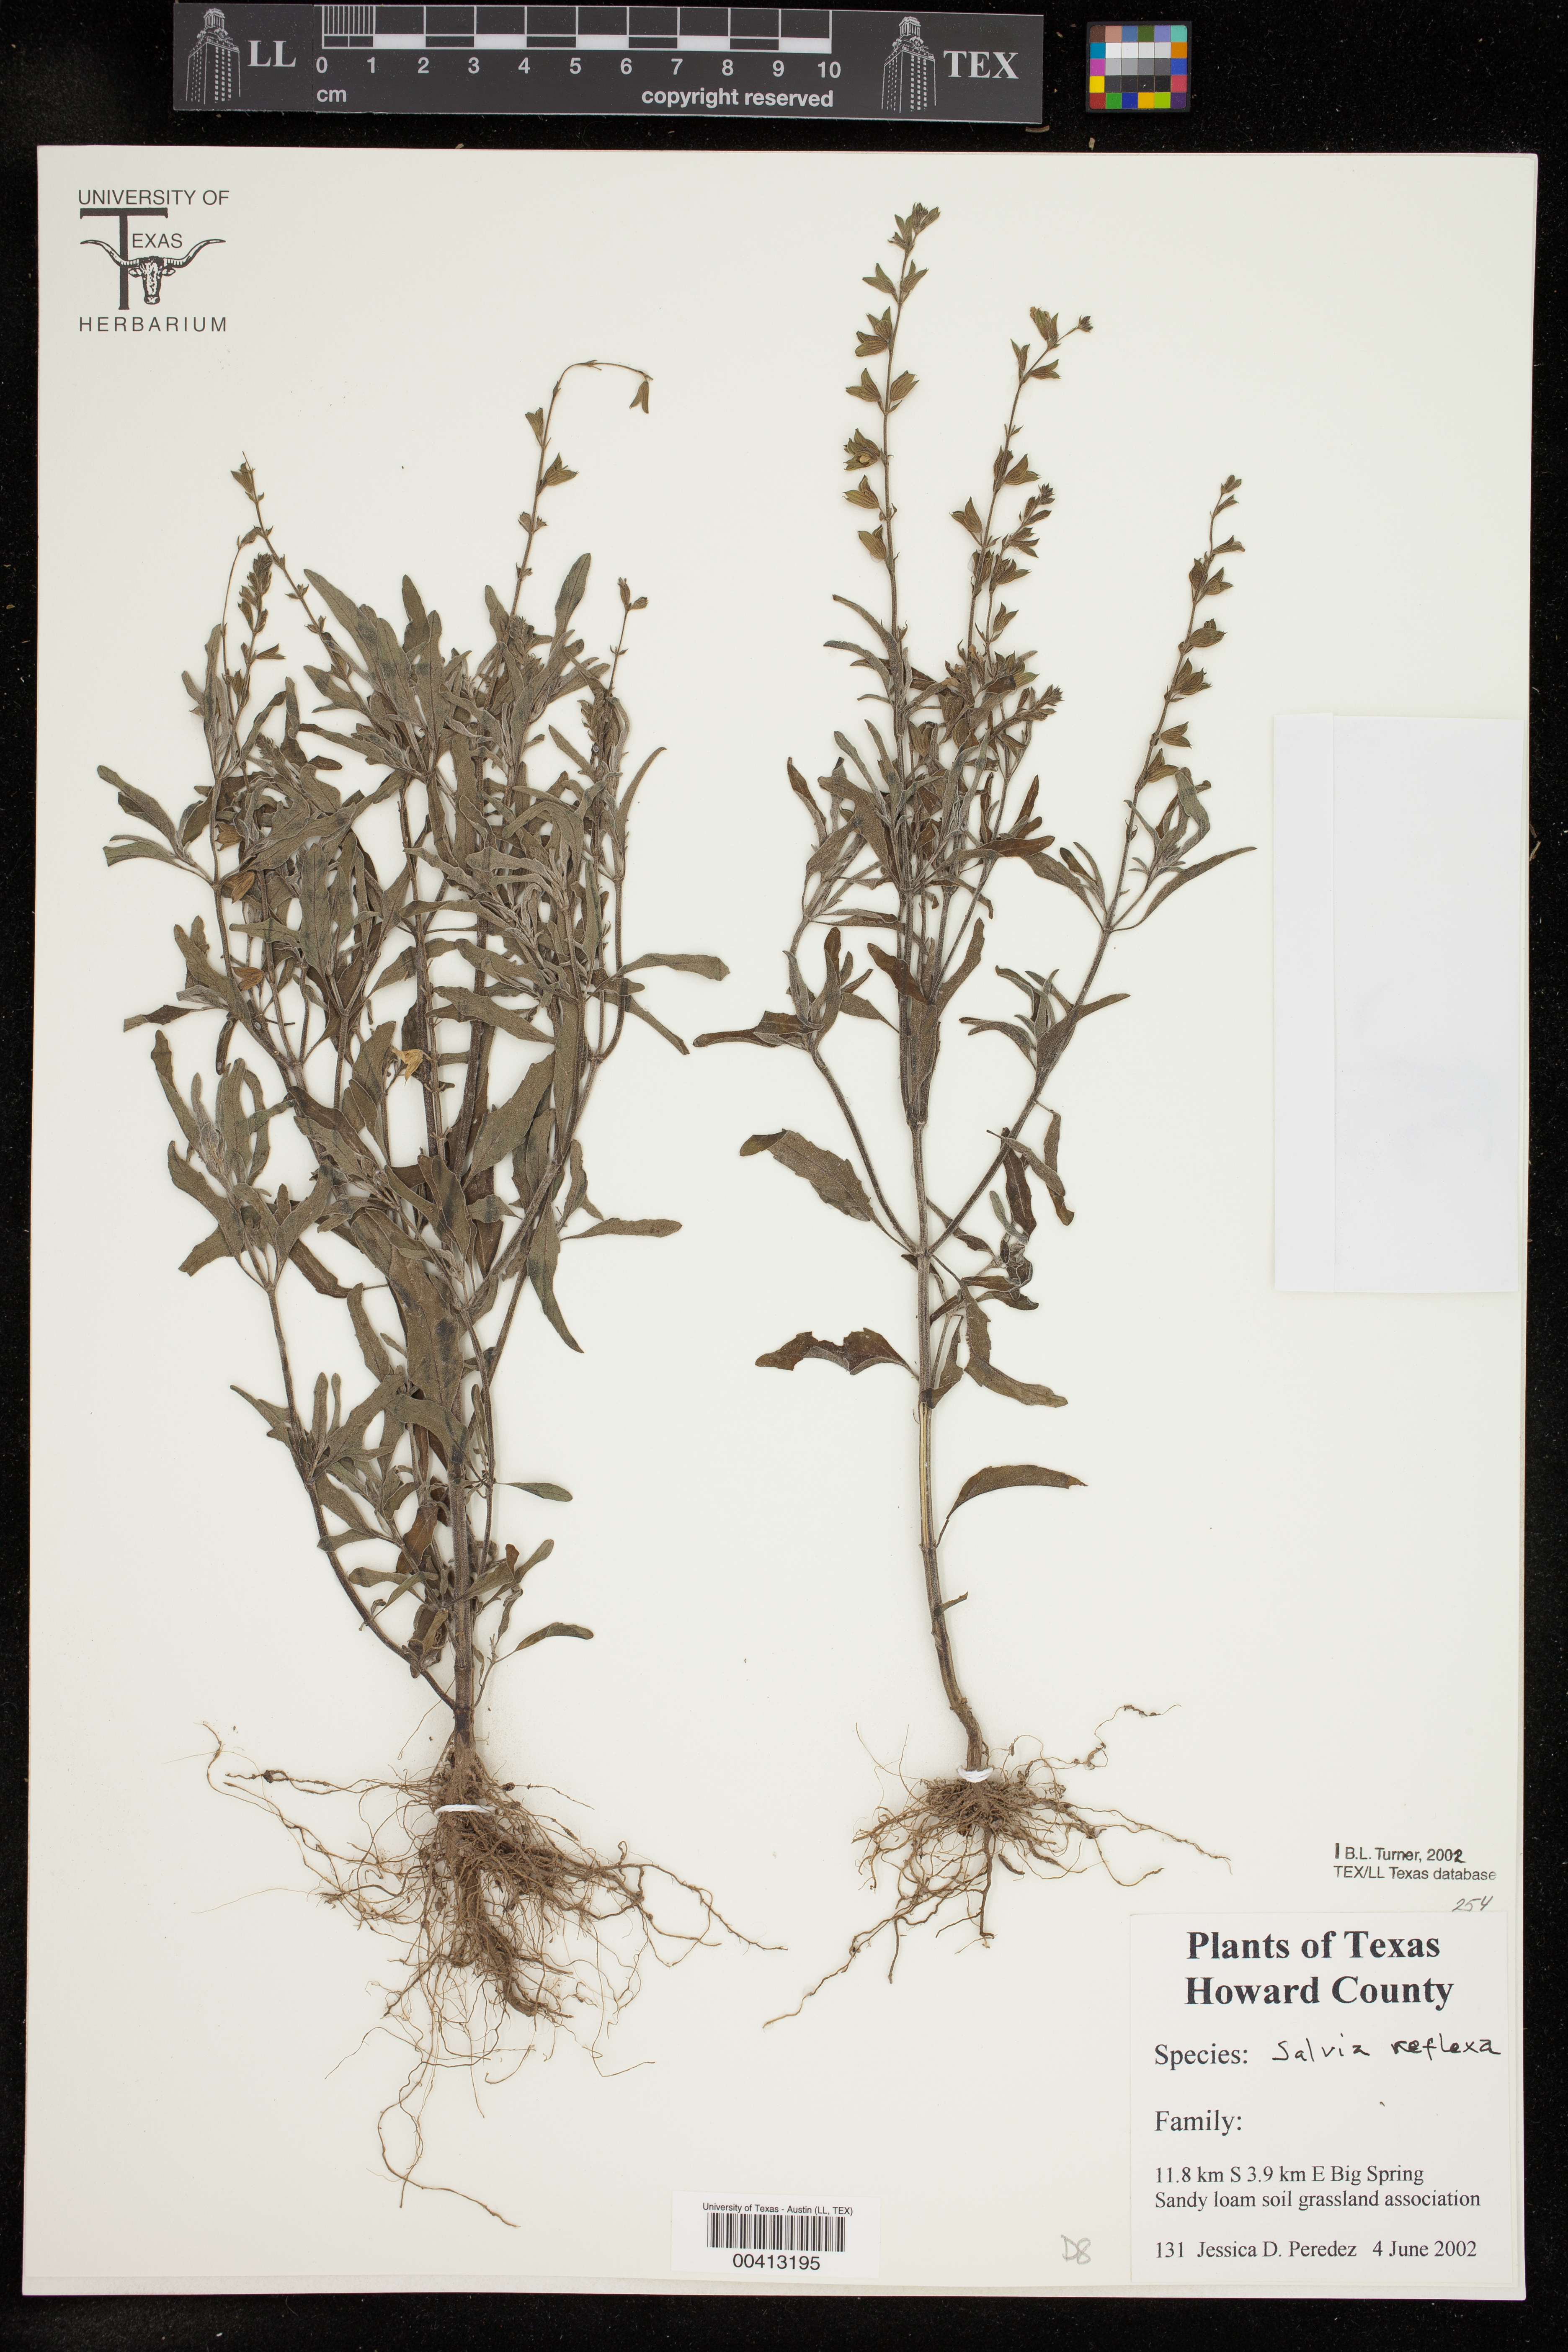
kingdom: Plantae
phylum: Tracheophyta
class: Magnoliopsida
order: Lamiales
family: Lamiaceae
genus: Salvia
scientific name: Salvia reflexa
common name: Mintweed
